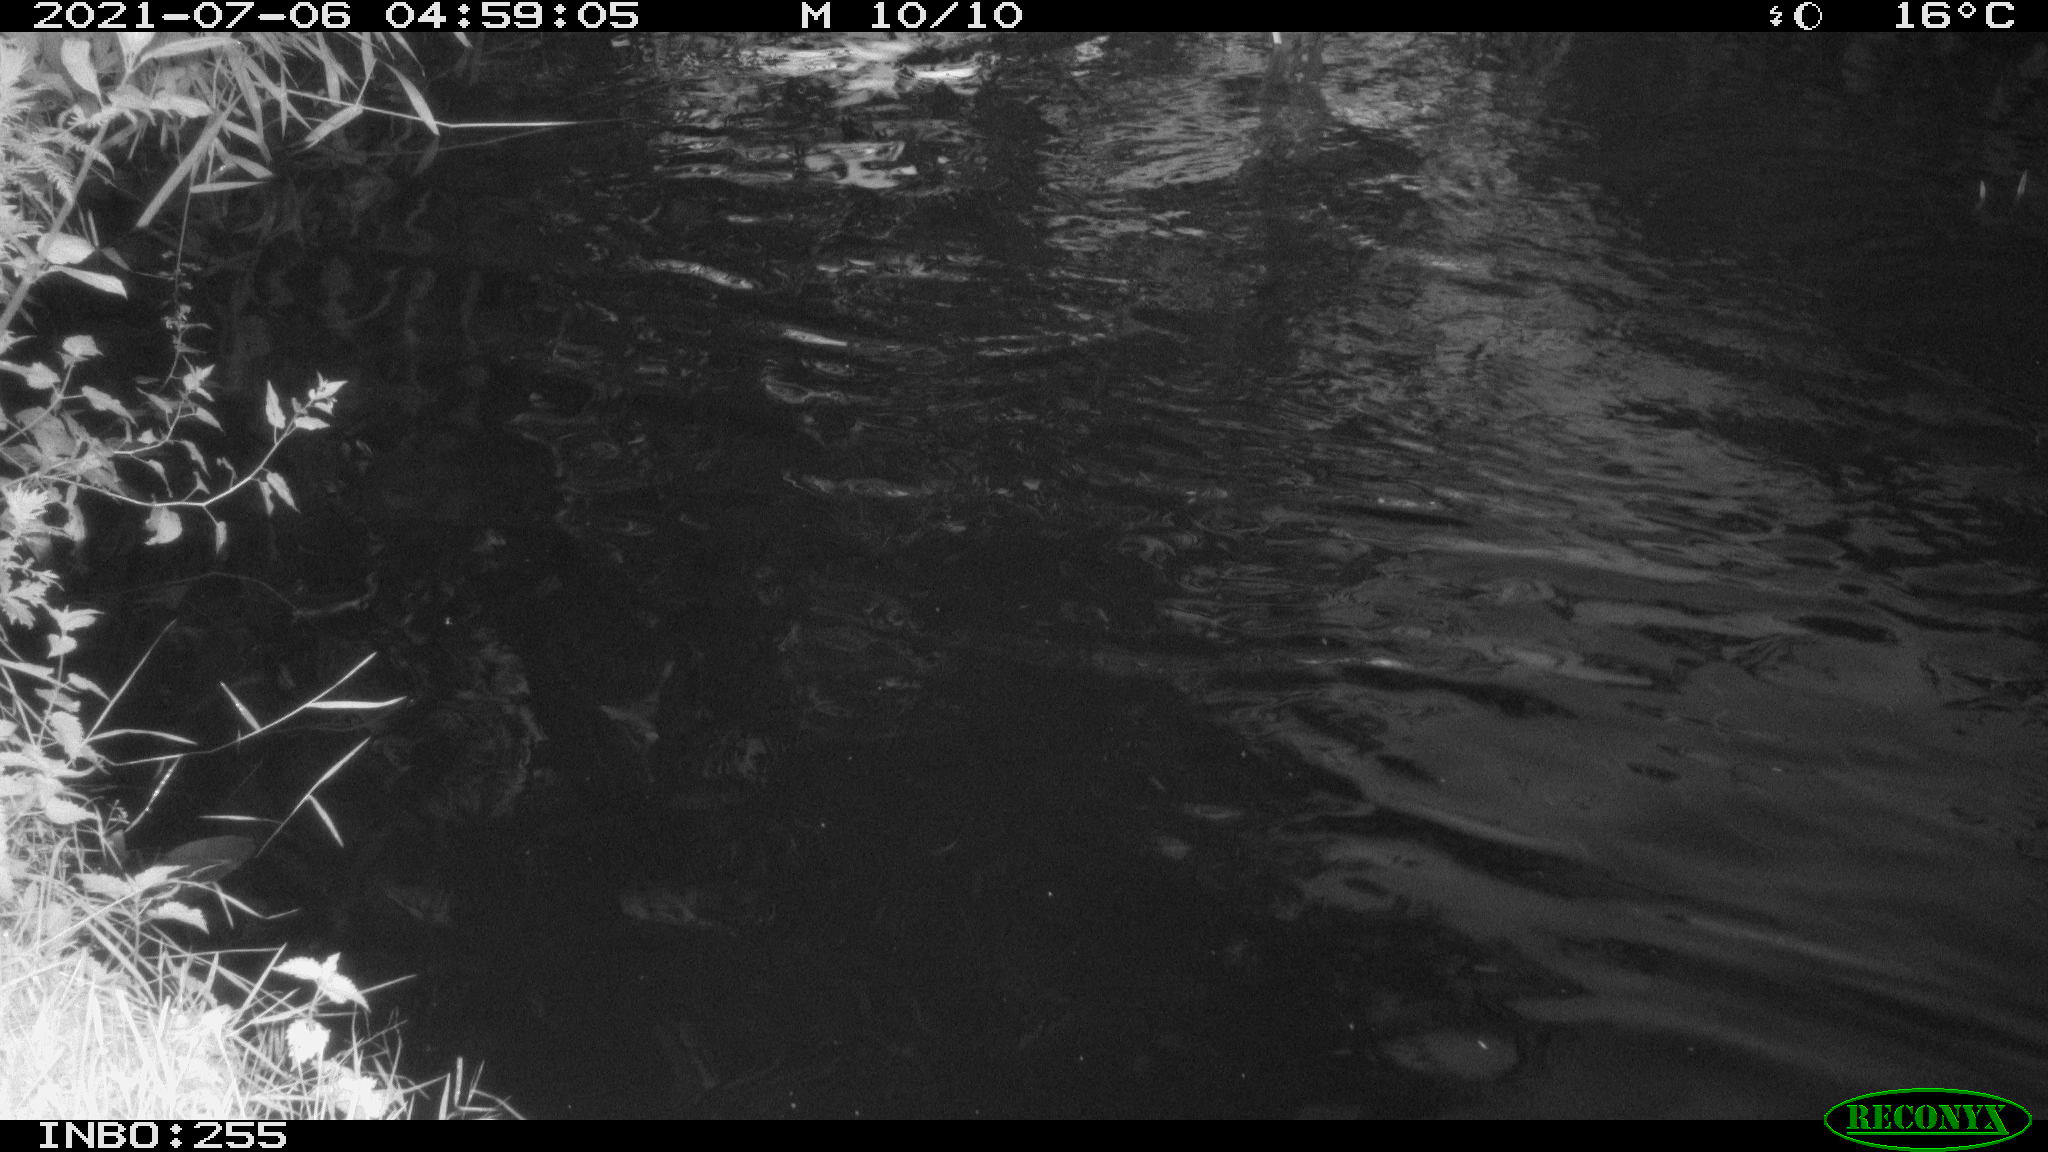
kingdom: Animalia
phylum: Chordata
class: Aves
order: Anseriformes
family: Anatidae
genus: Anas
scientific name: Anas platyrhynchos
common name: Mallard
